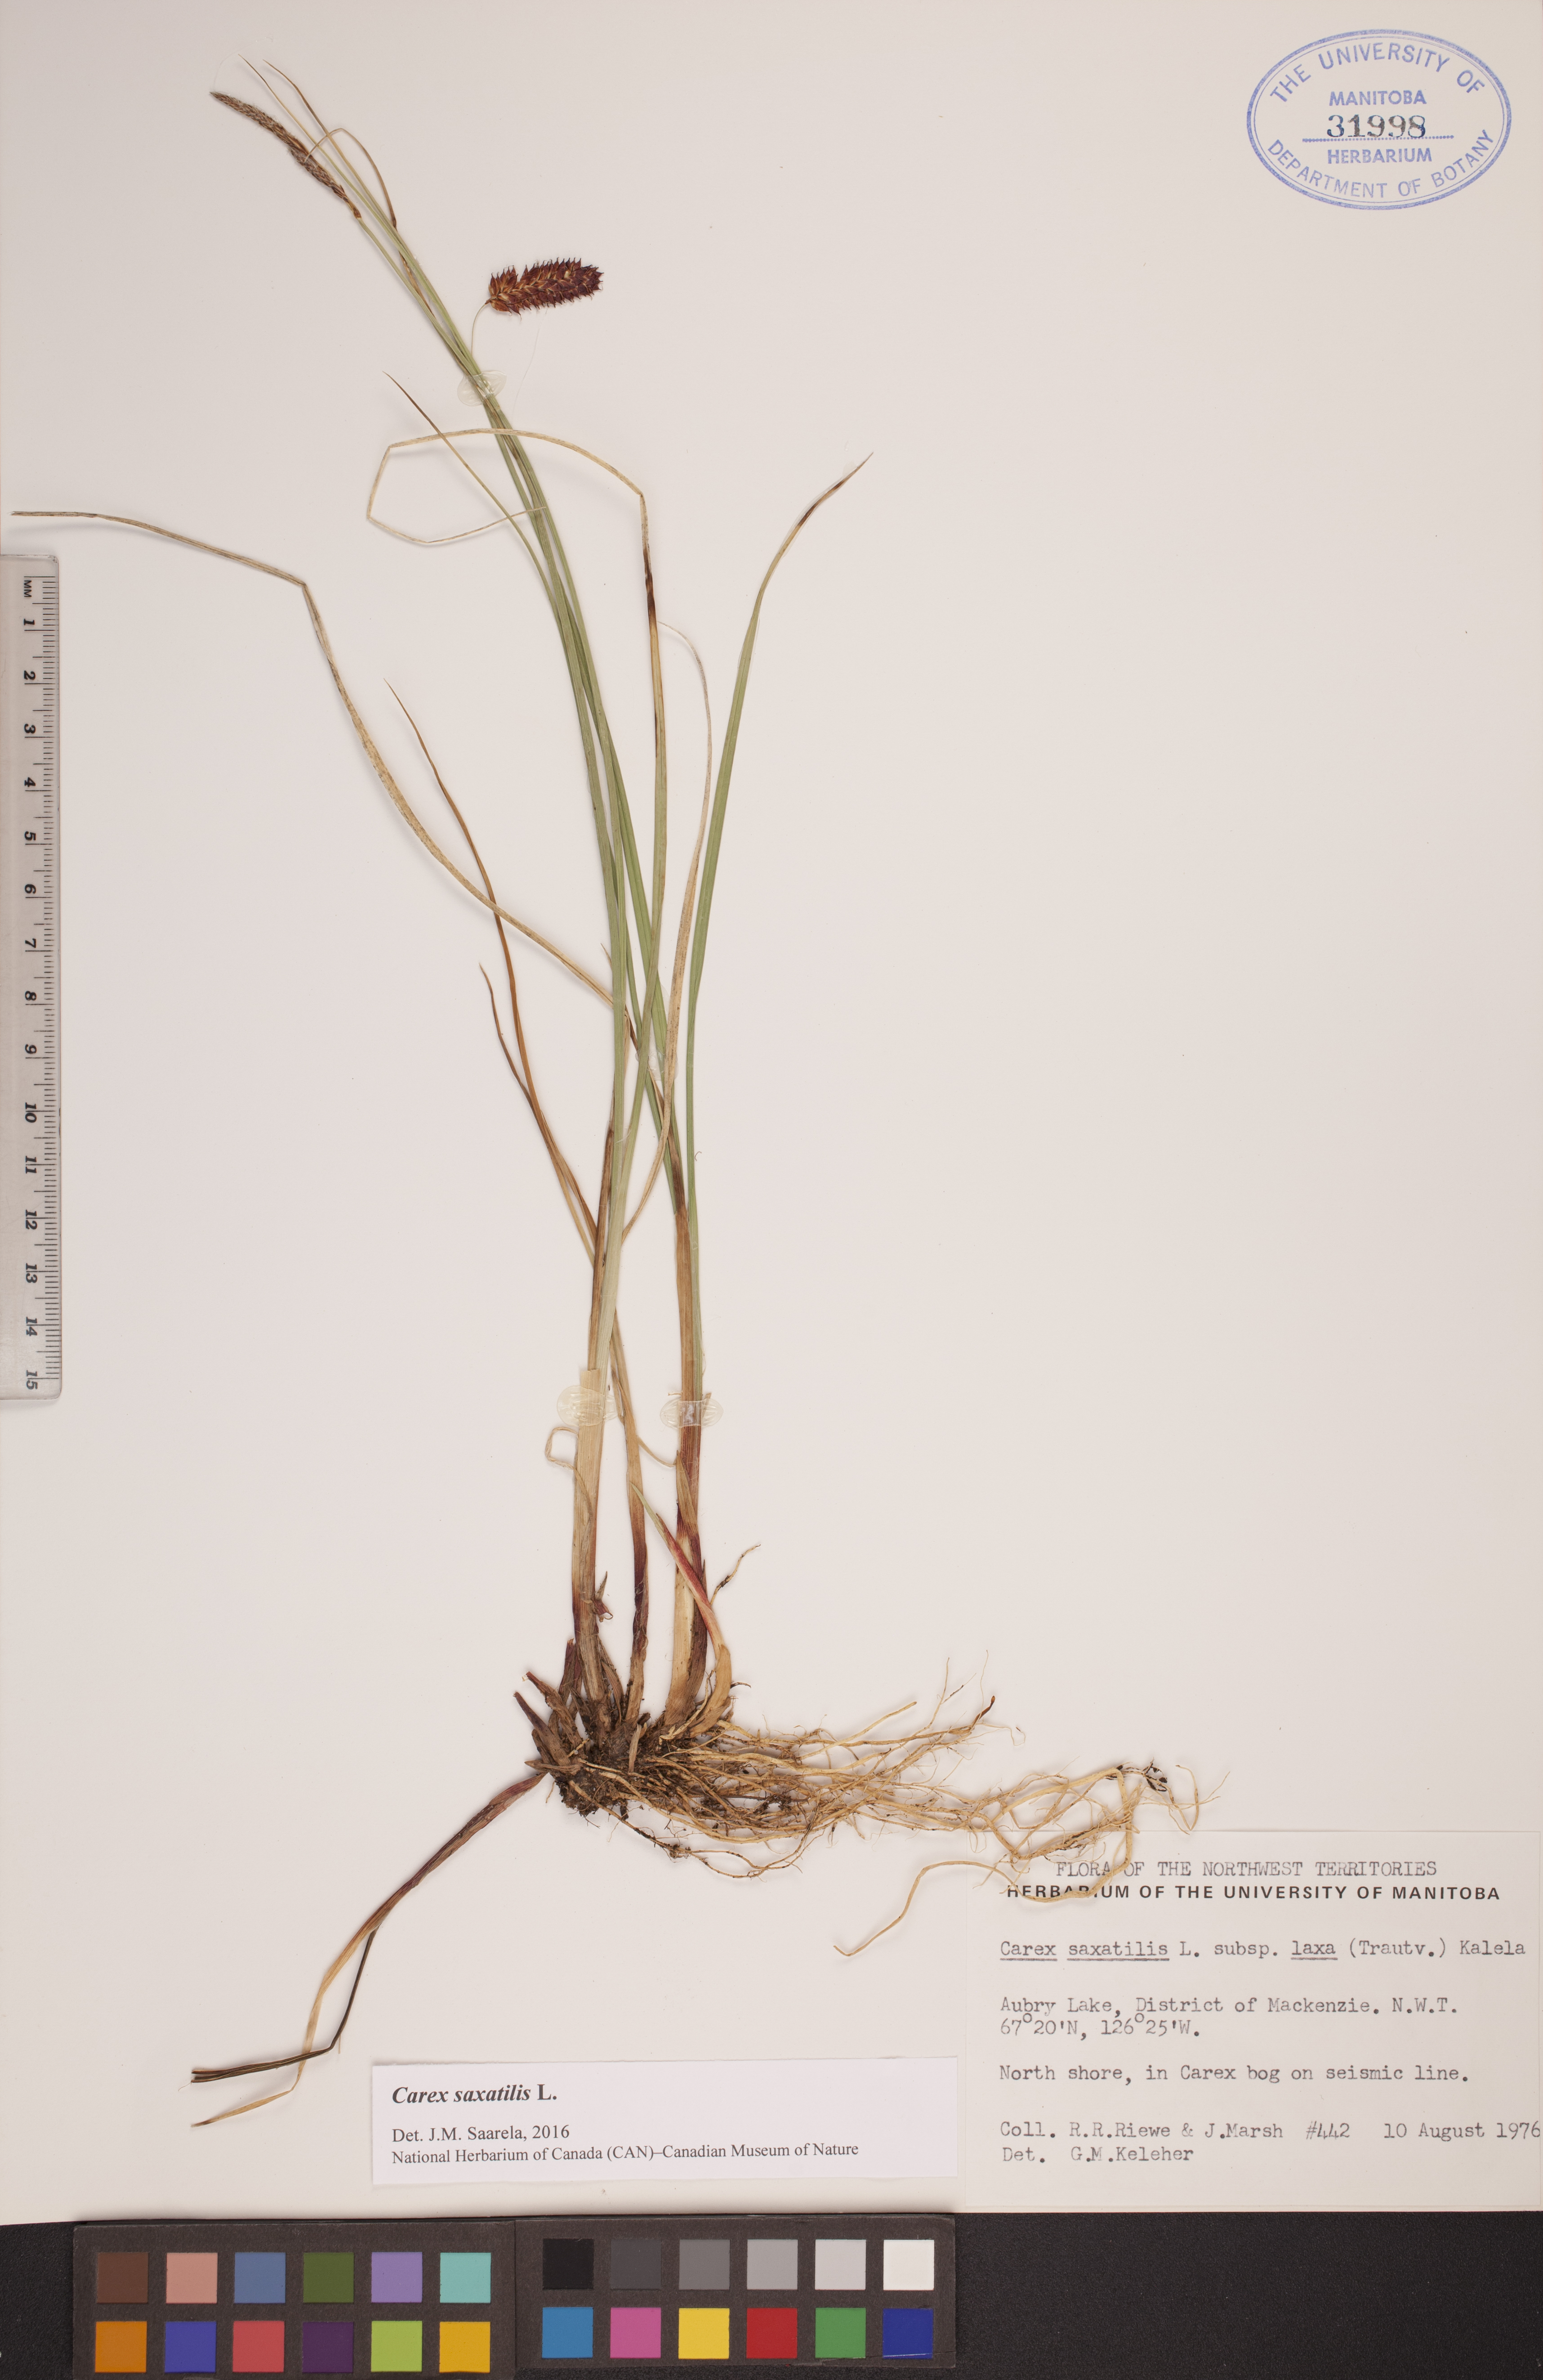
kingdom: Plantae
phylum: Tracheophyta
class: Liliopsida
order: Poales
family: Cyperaceae
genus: Carex
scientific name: Carex saxatilis
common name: Russet sedge
